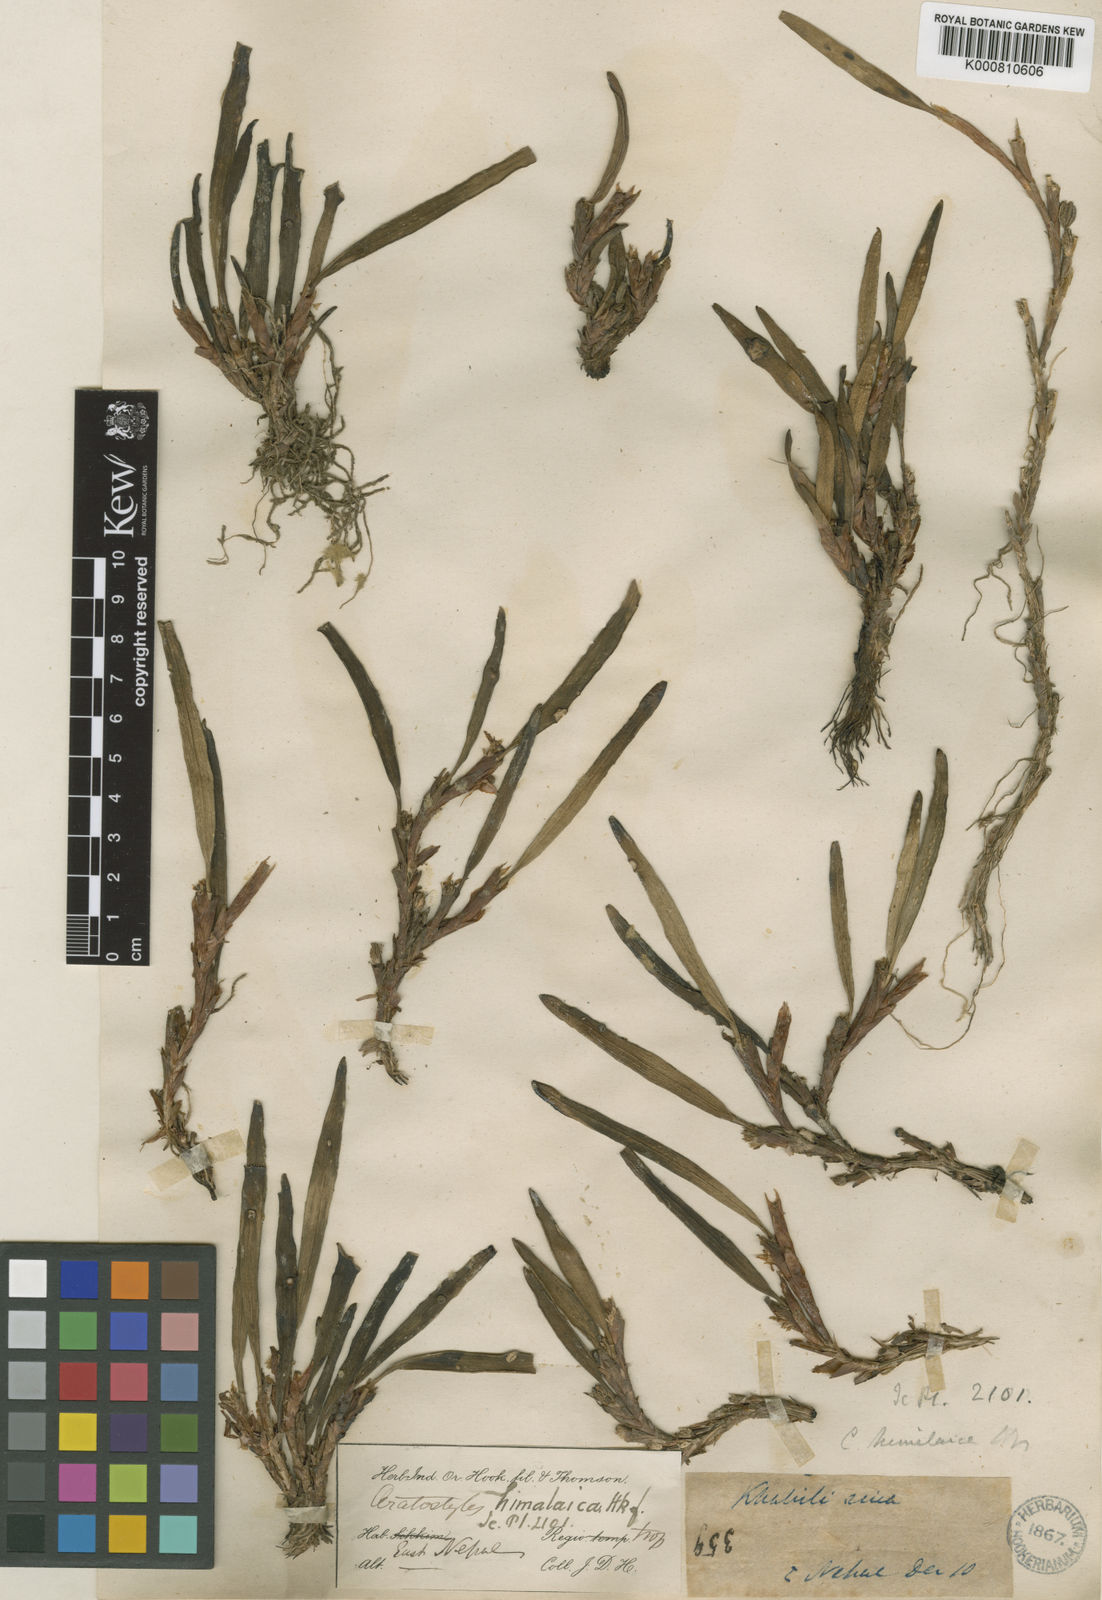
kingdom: Plantae
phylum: Tracheophyta
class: Liliopsida
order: Asparagales
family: Orchidaceae
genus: Ceratostylis
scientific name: Ceratostylis himalaica
